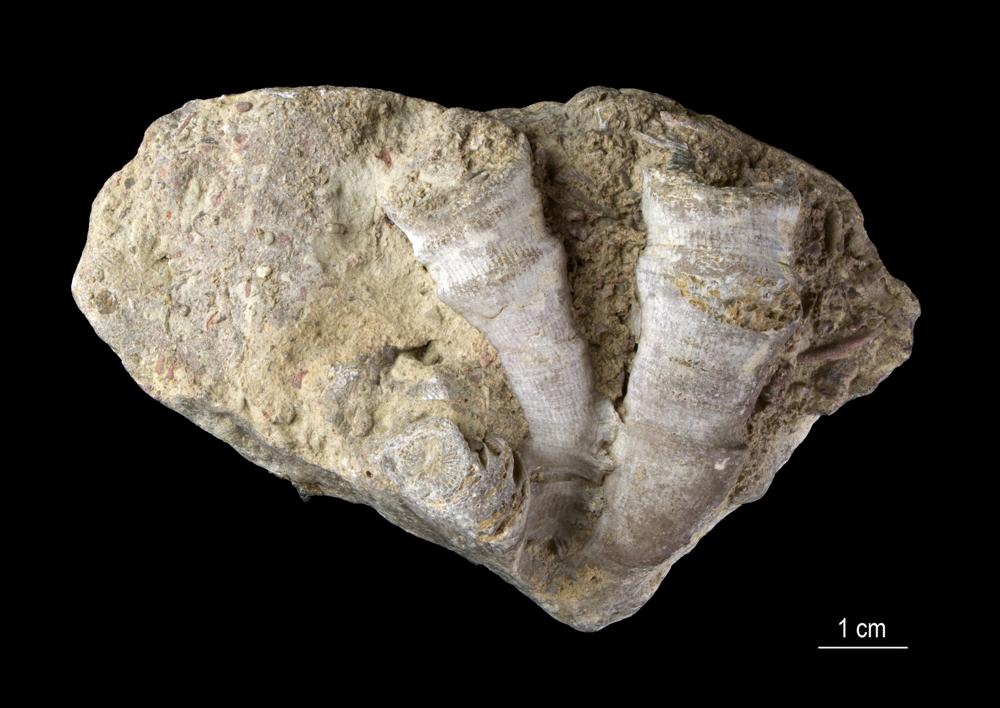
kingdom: Animalia
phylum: Cnidaria
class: Anthozoa
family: Ptenophyllidae
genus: Spongophylloides
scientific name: Spongophylloides
